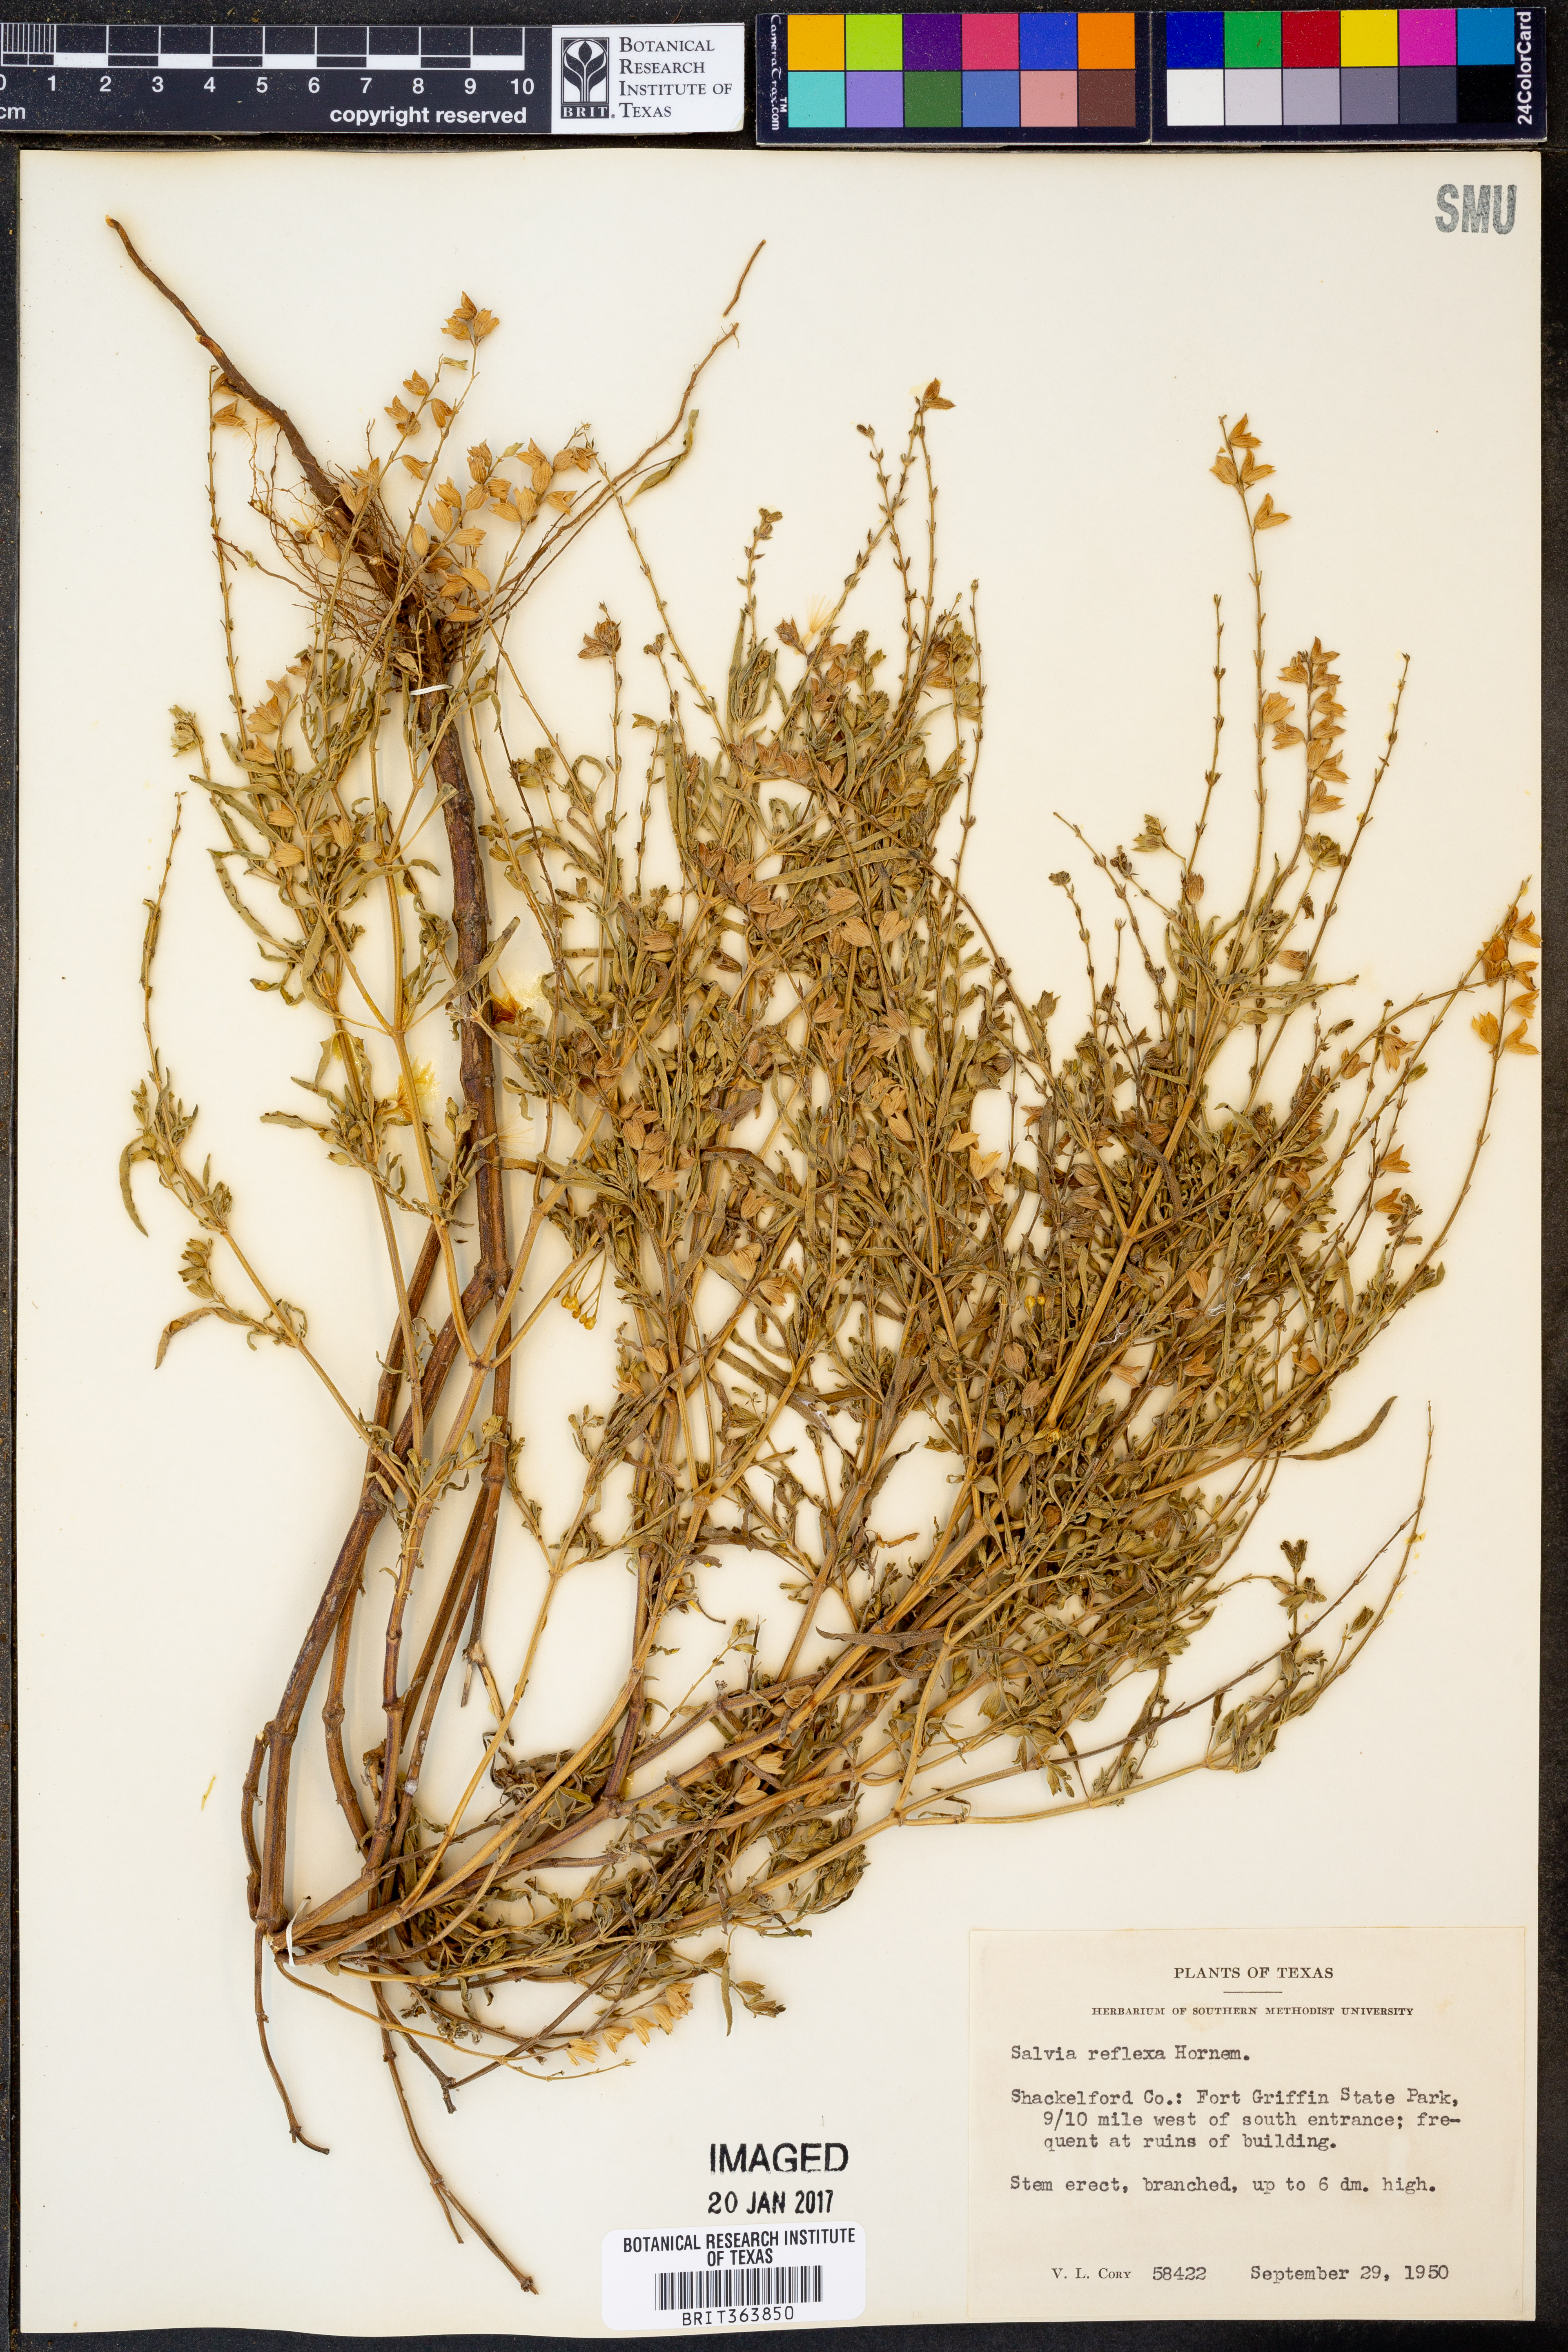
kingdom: Plantae
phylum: Tracheophyta
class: Magnoliopsida
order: Lamiales
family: Lamiaceae
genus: Salvia
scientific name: Salvia reflexa
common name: Mintweed
